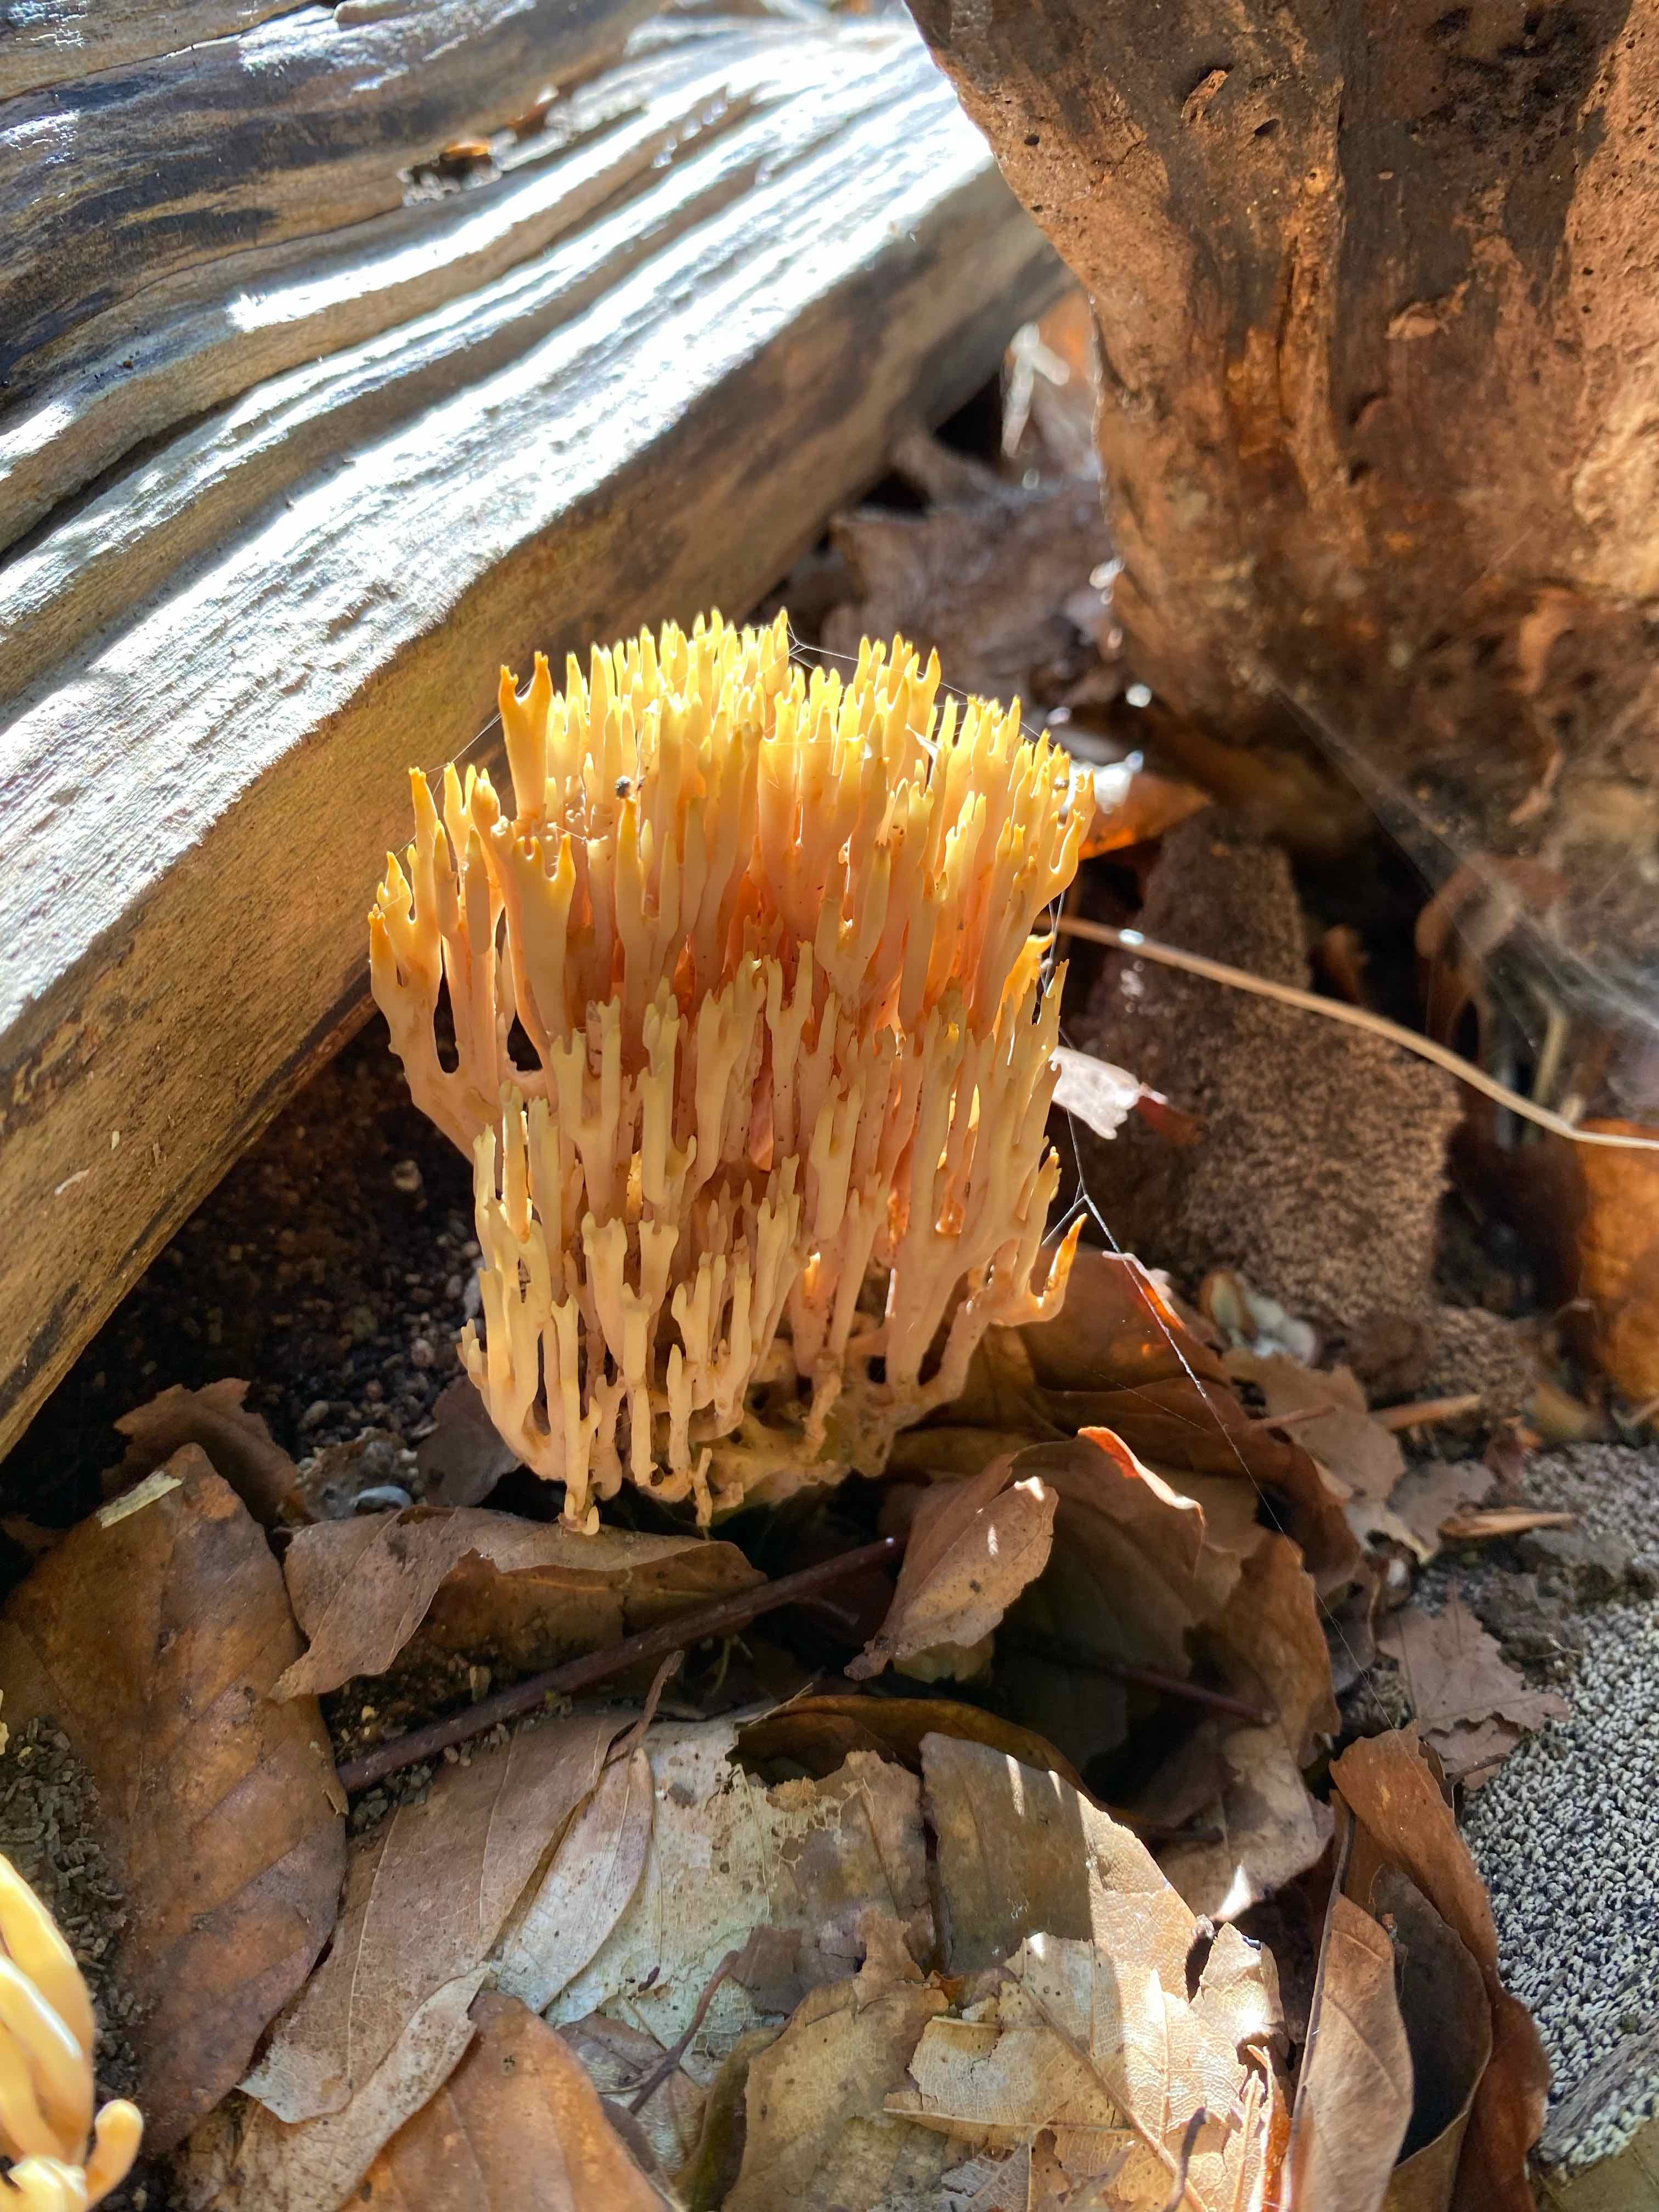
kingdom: Fungi
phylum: Basidiomycota
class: Agaricomycetes
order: Gomphales
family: Gomphaceae
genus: Ramaria
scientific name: Ramaria stricta
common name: rank koralsvamp
